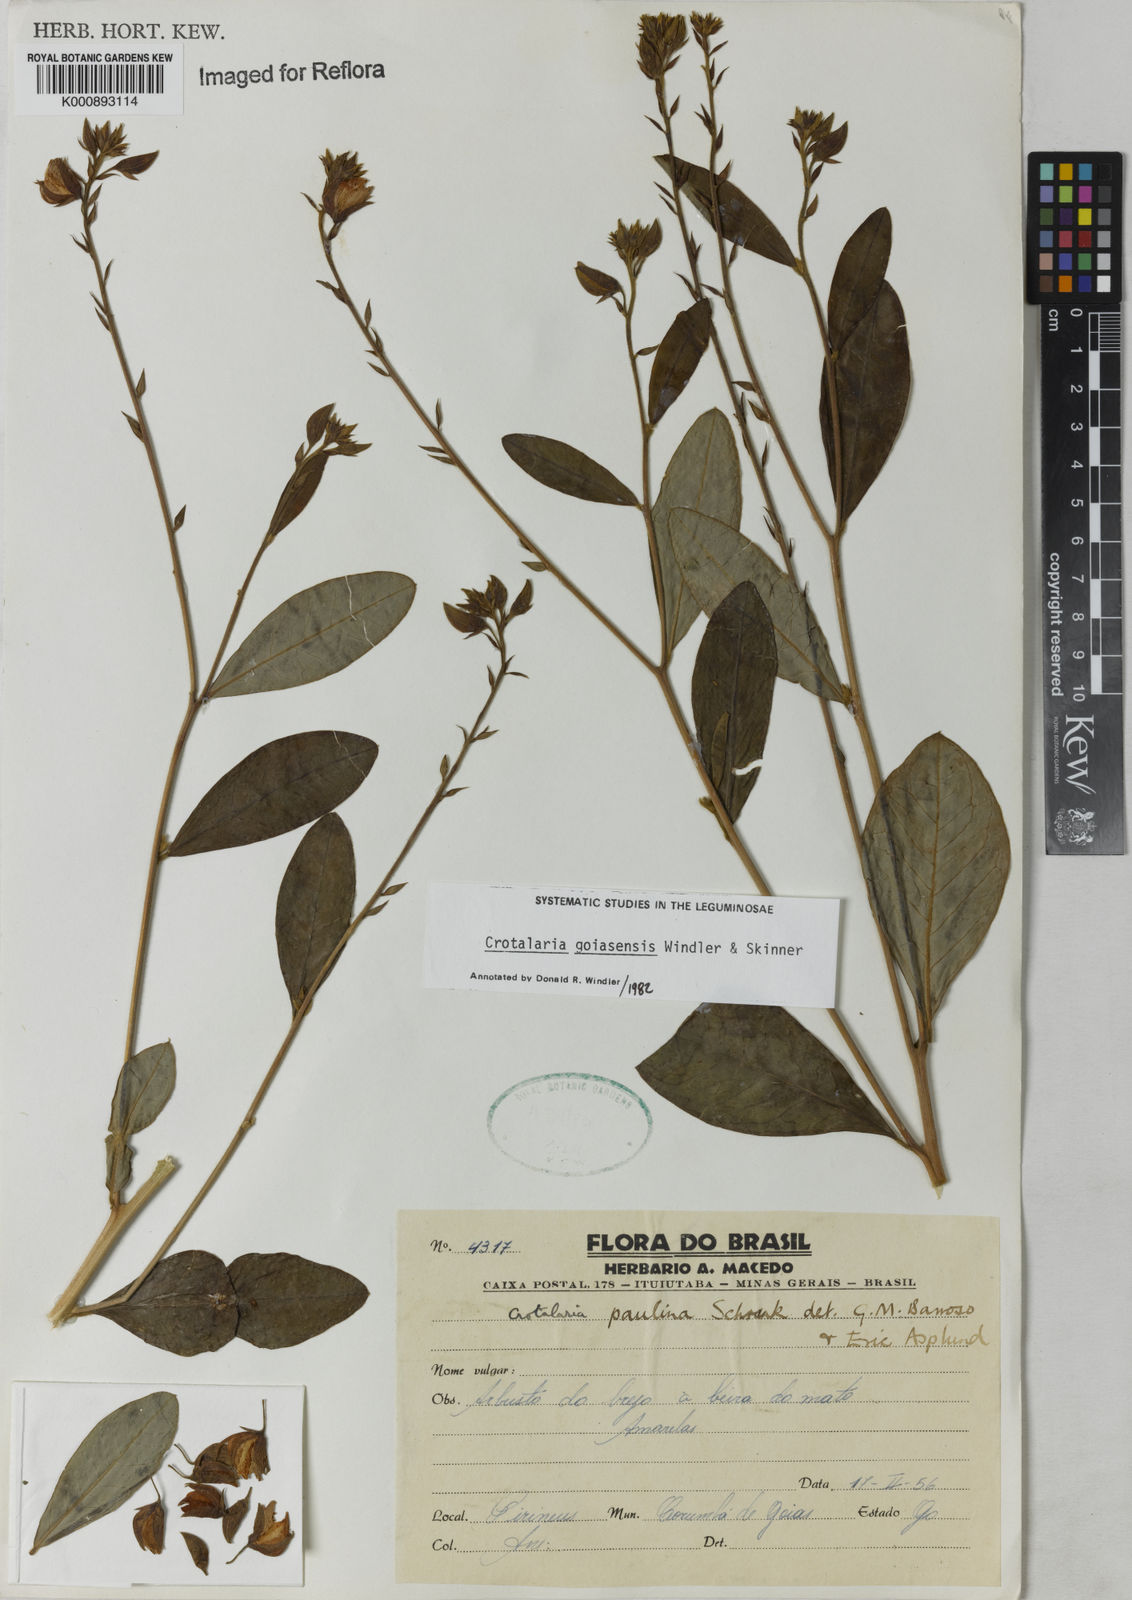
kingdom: Plantae
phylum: Tracheophyta
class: Magnoliopsida
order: Fabales
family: Fabaceae
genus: Crotalaria
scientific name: Crotalaria goiasensis
